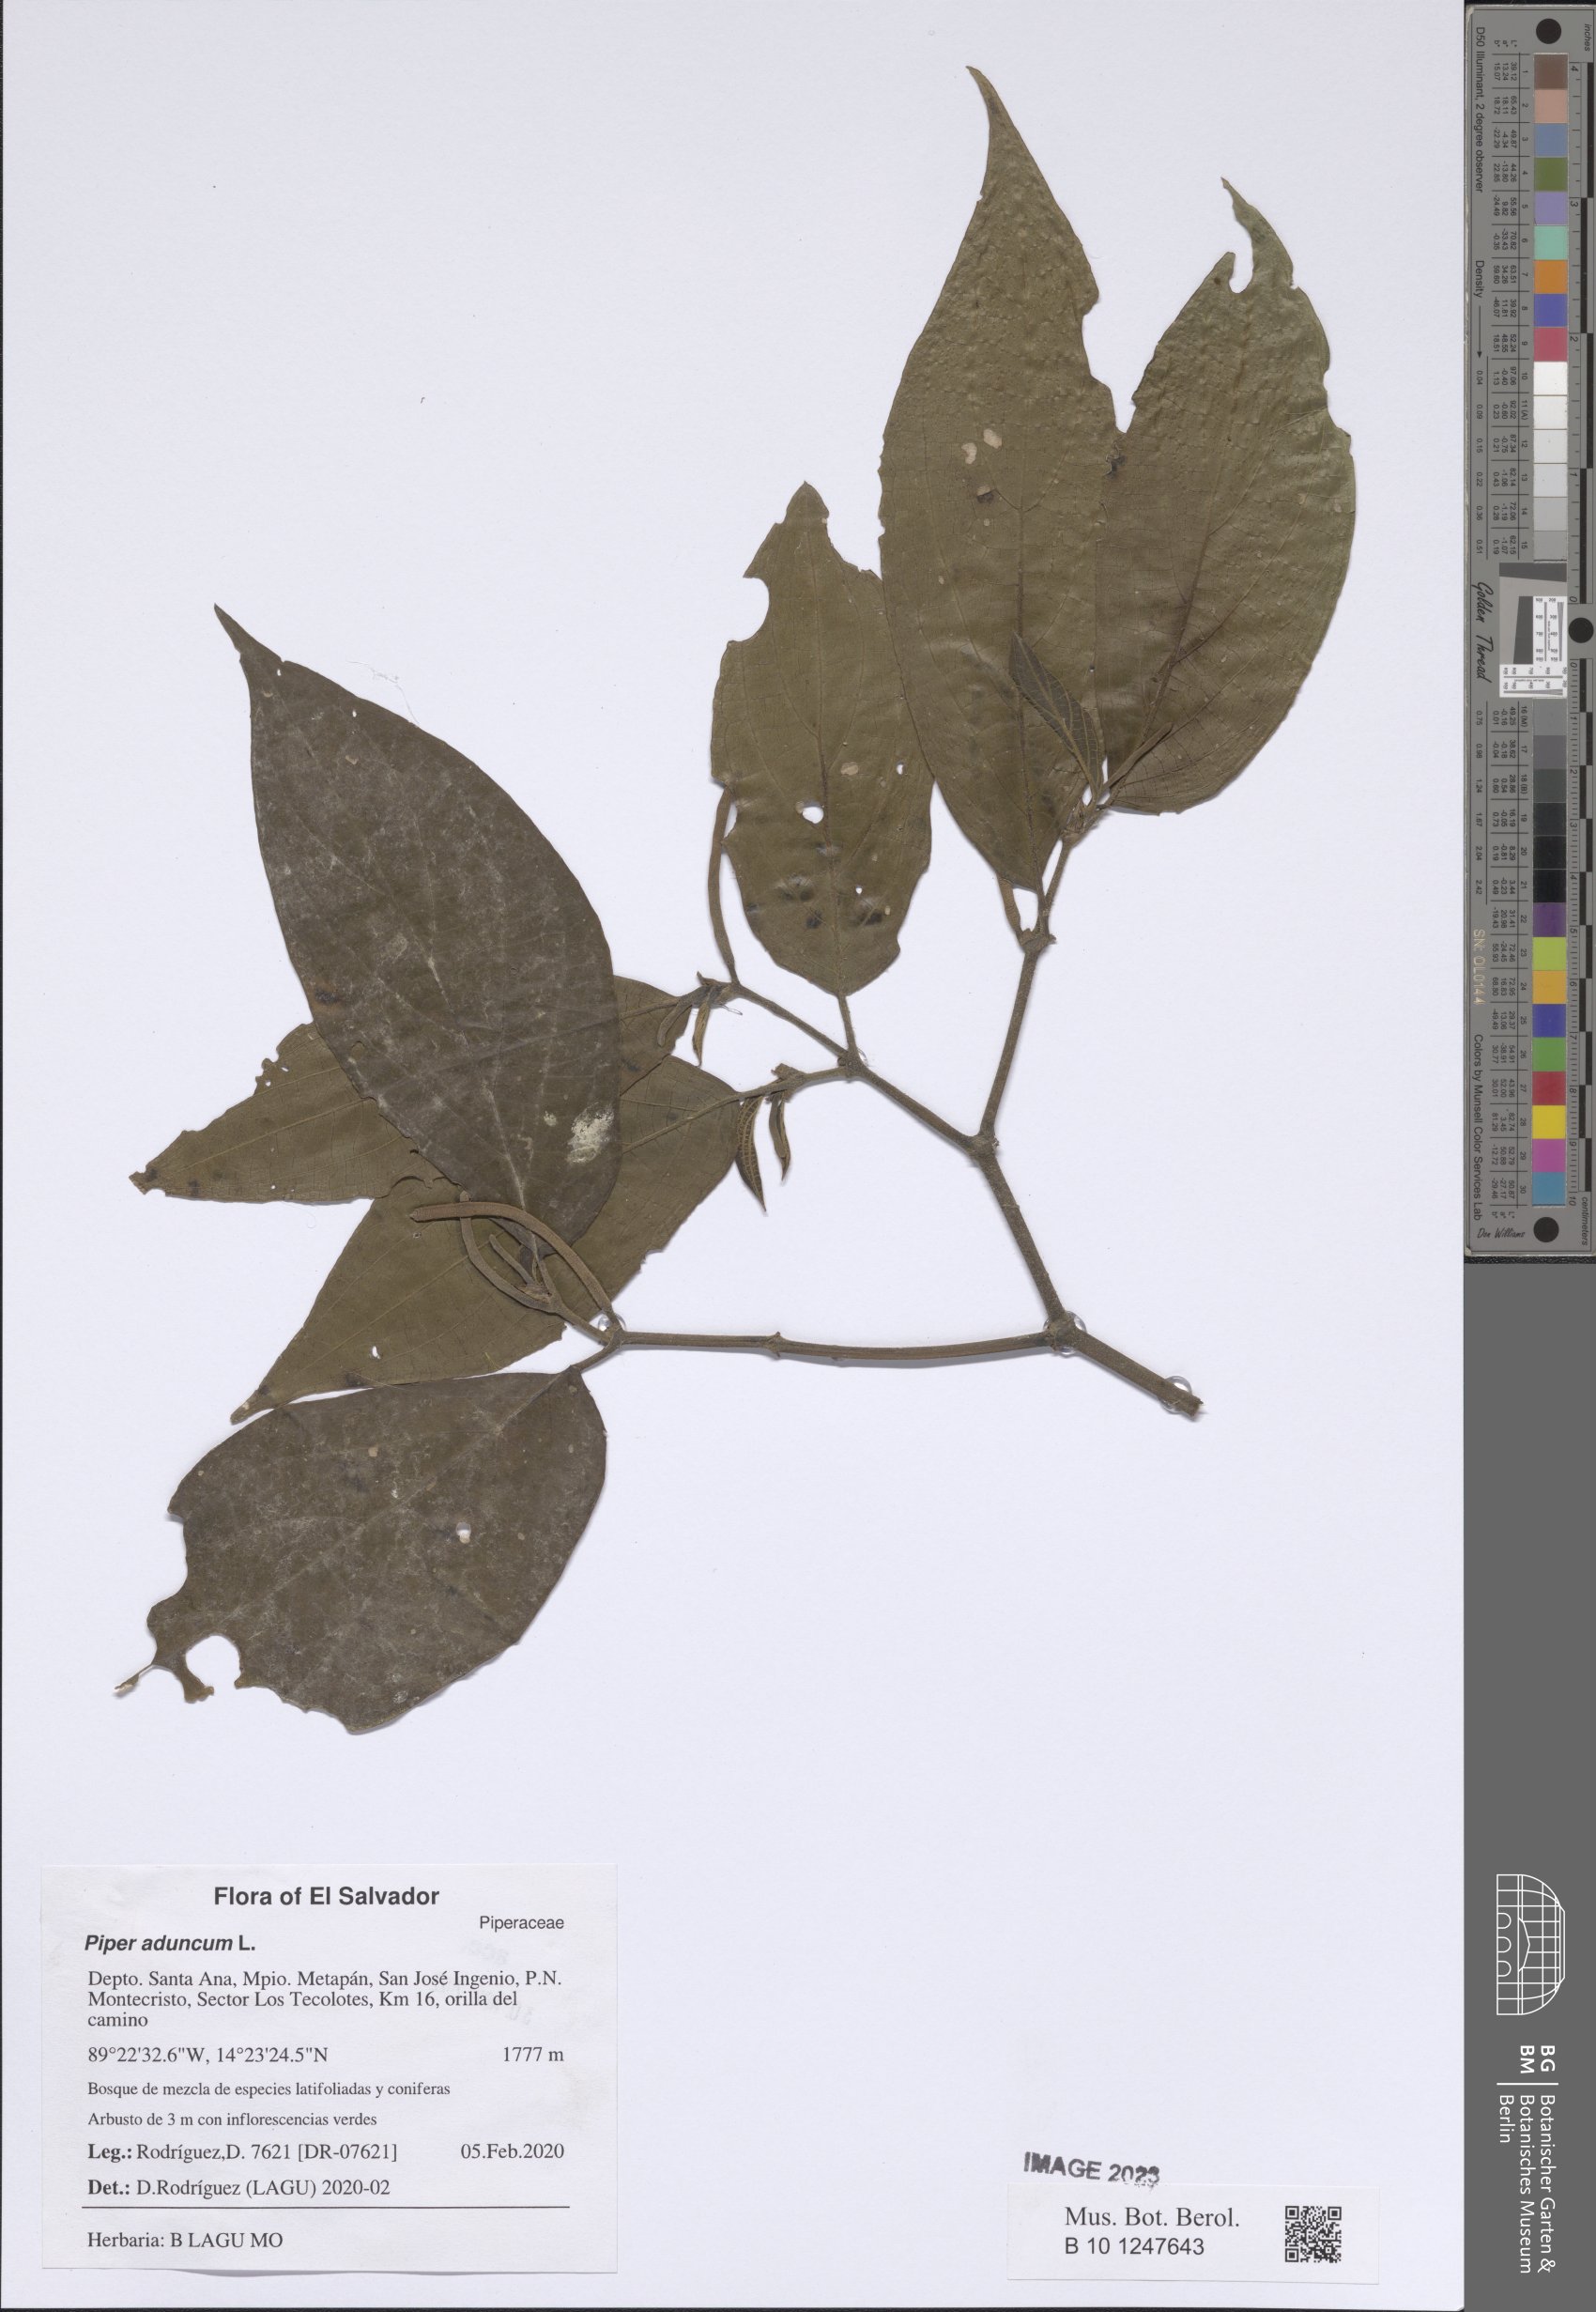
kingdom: Plantae
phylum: Tracheophyta
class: Magnoliopsida
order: Piperales
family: Piperaceae
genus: Piper
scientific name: Piper aduncum
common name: Spiked pepper
